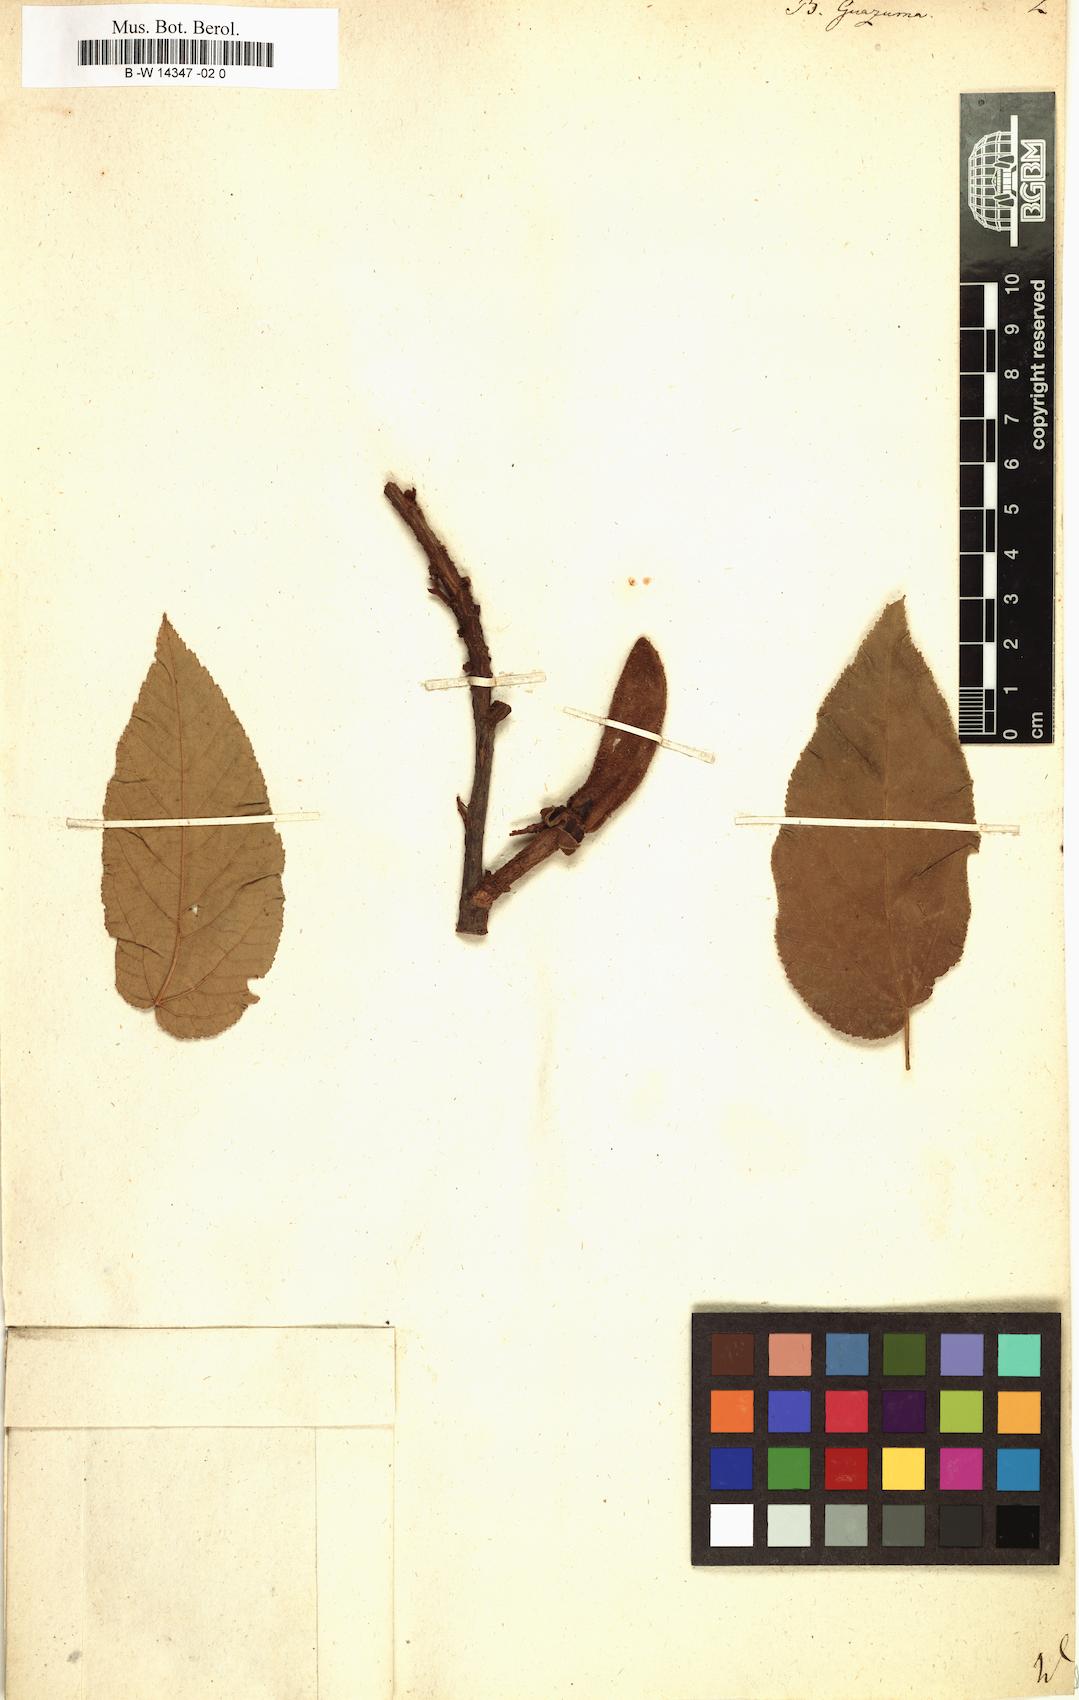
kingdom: Plantae
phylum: Tracheophyta
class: Magnoliopsida
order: Malvales
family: Malvaceae
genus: Guazuma
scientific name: Guazuma ulmifolia
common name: Bastard-cedar
